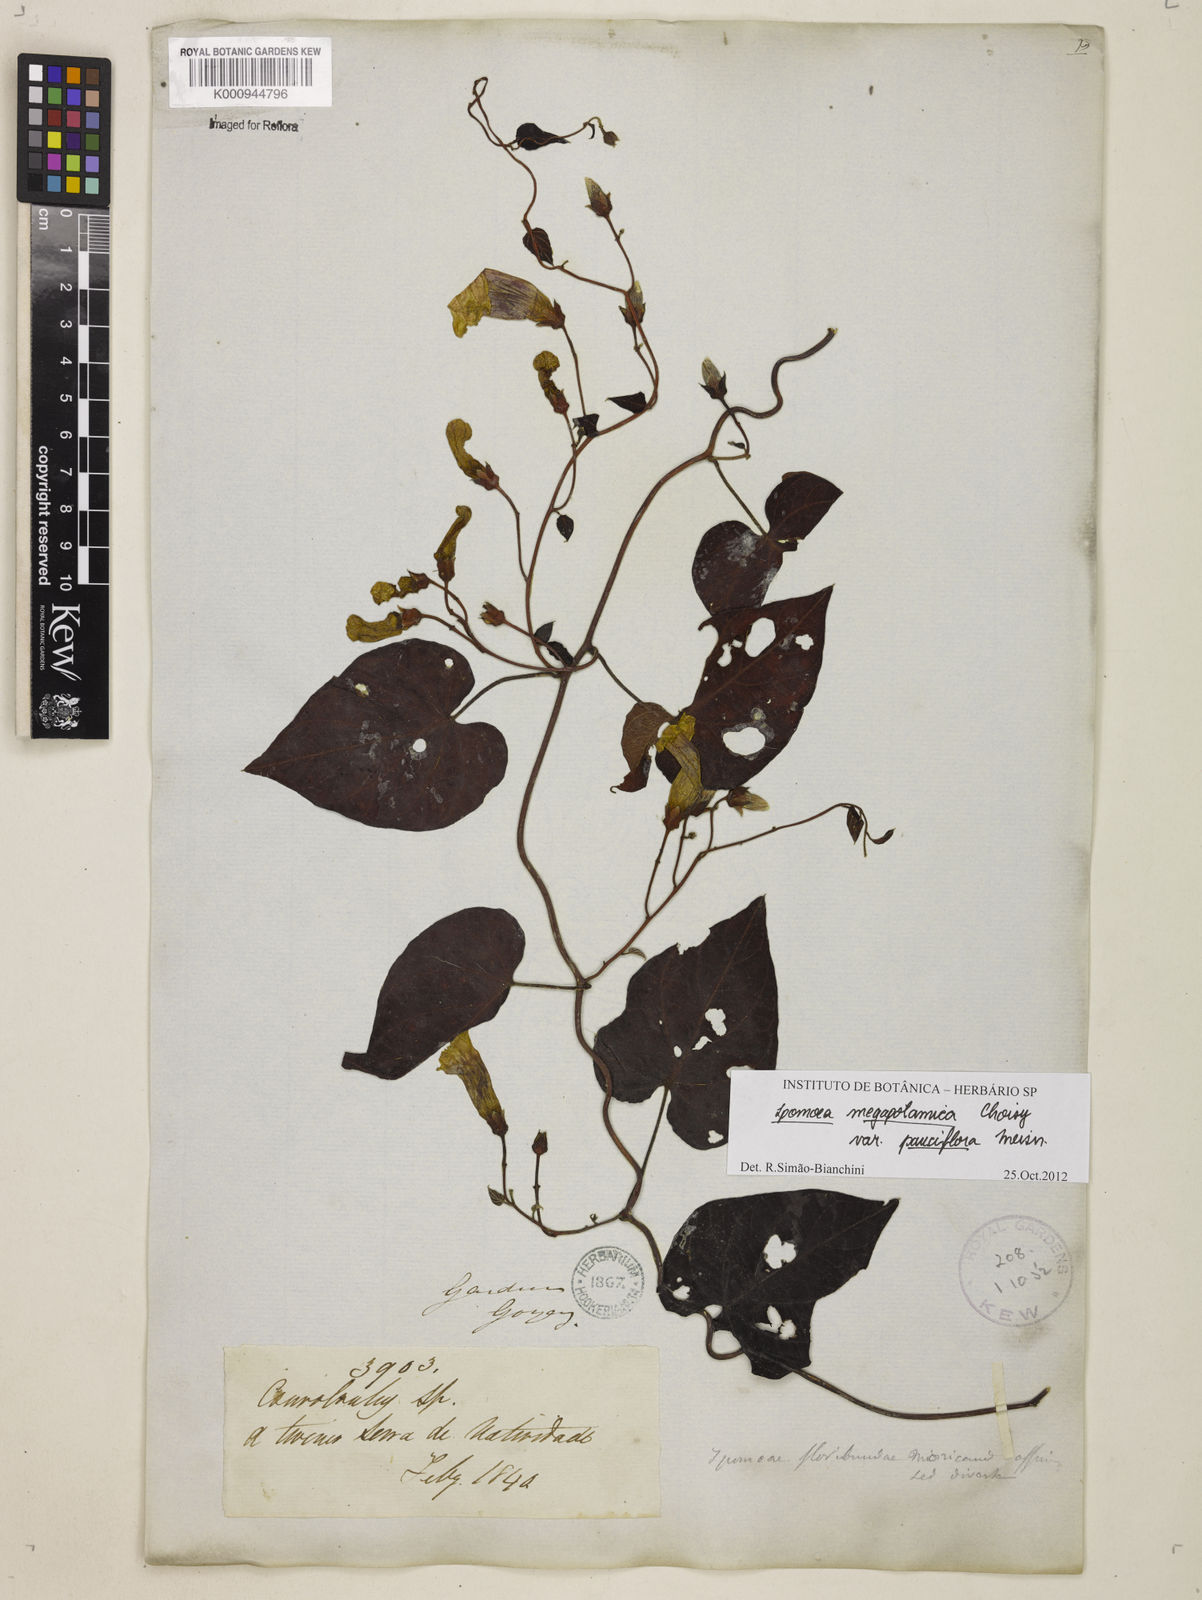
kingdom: Plantae
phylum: Tracheophyta
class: Magnoliopsida
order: Solanales
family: Convolvulaceae
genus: Ipomoea
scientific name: Ipomoea megapotamica
